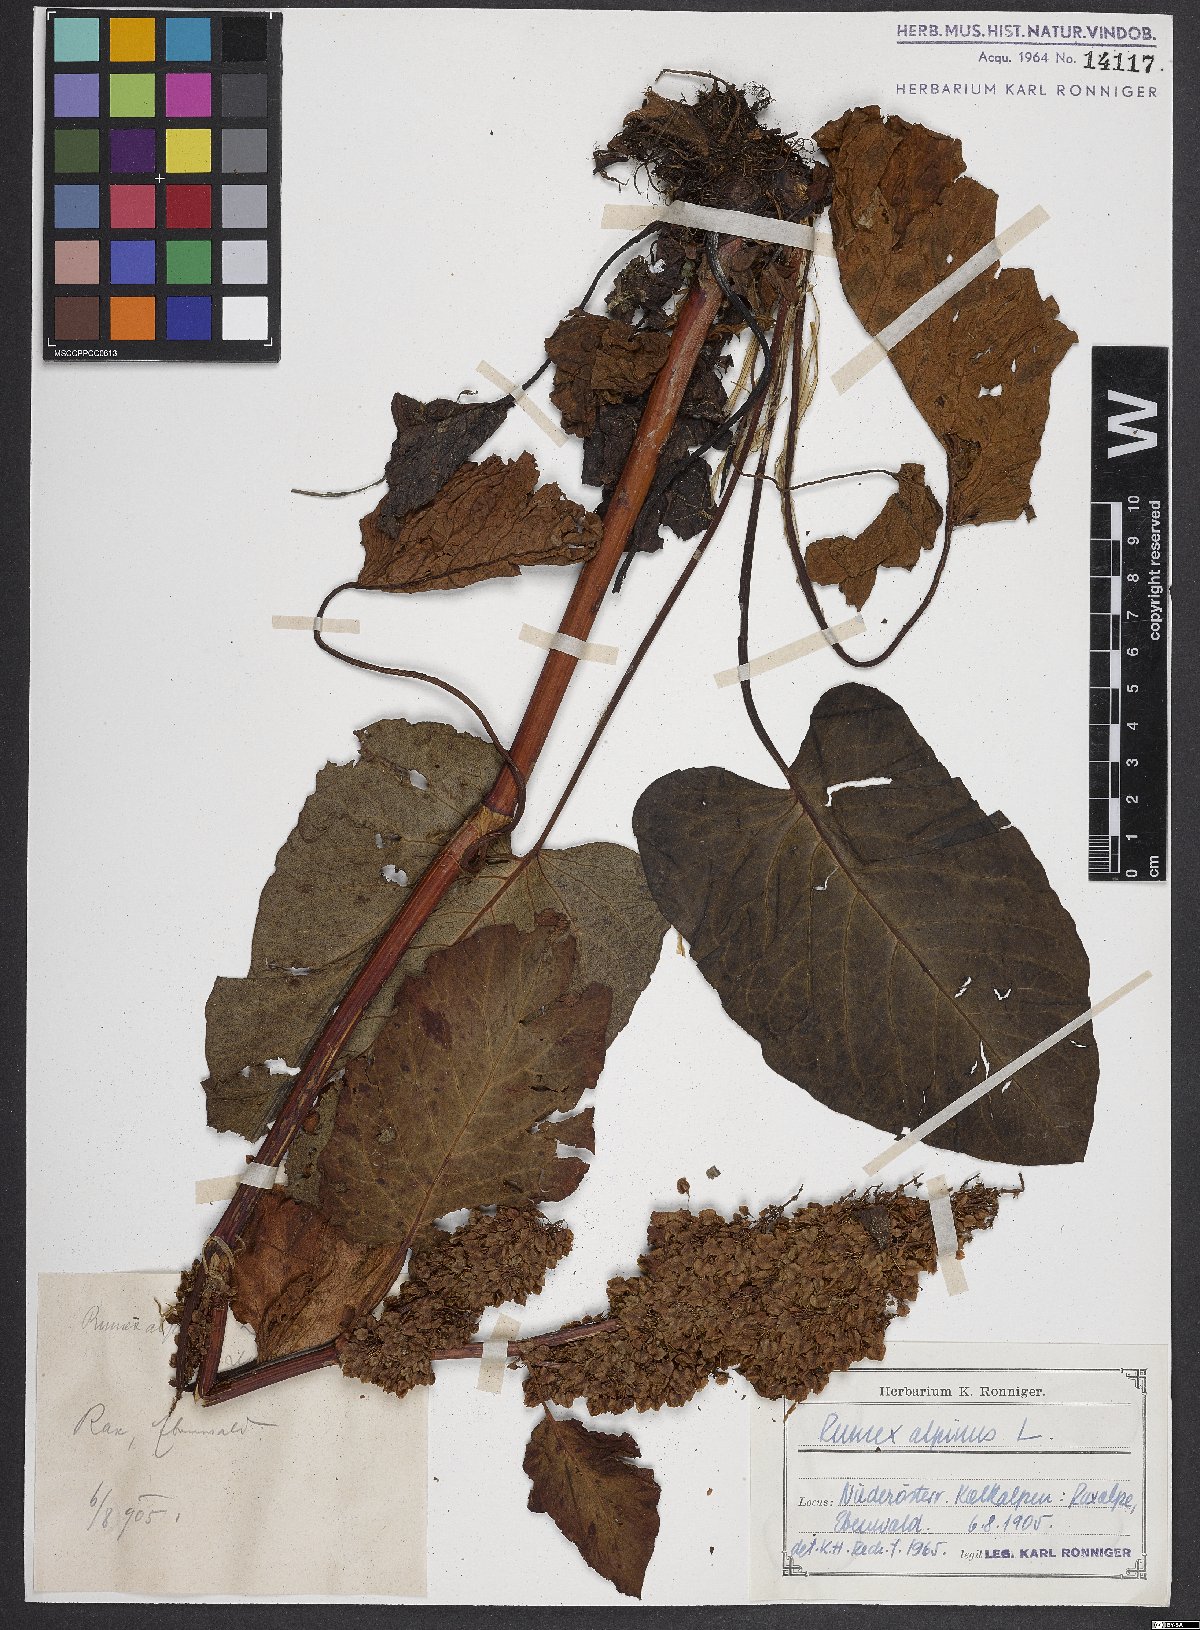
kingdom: Plantae
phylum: Tracheophyta
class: Magnoliopsida
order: Caryophyllales
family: Polygonaceae
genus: Rumex
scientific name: Rumex alpinus
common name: Alpine dock
